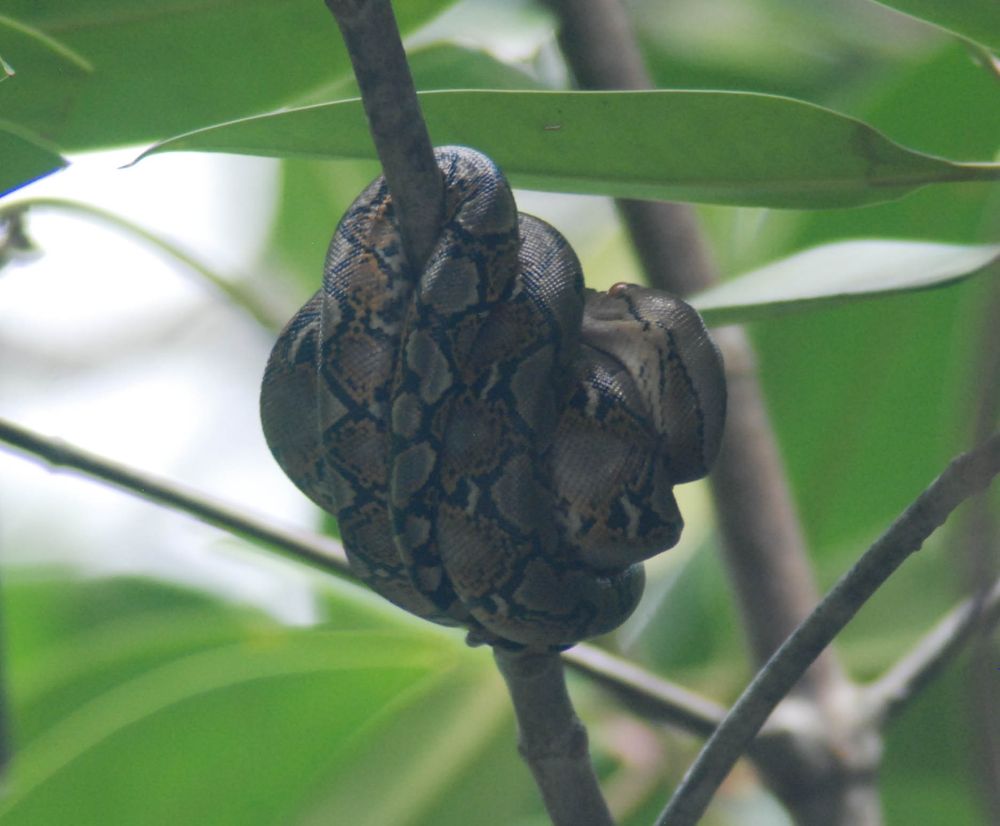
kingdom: Animalia
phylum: Chordata
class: Squamata
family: Pythonidae
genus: Malayopython
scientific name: Malayopython reticulatus
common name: Reticulated python
